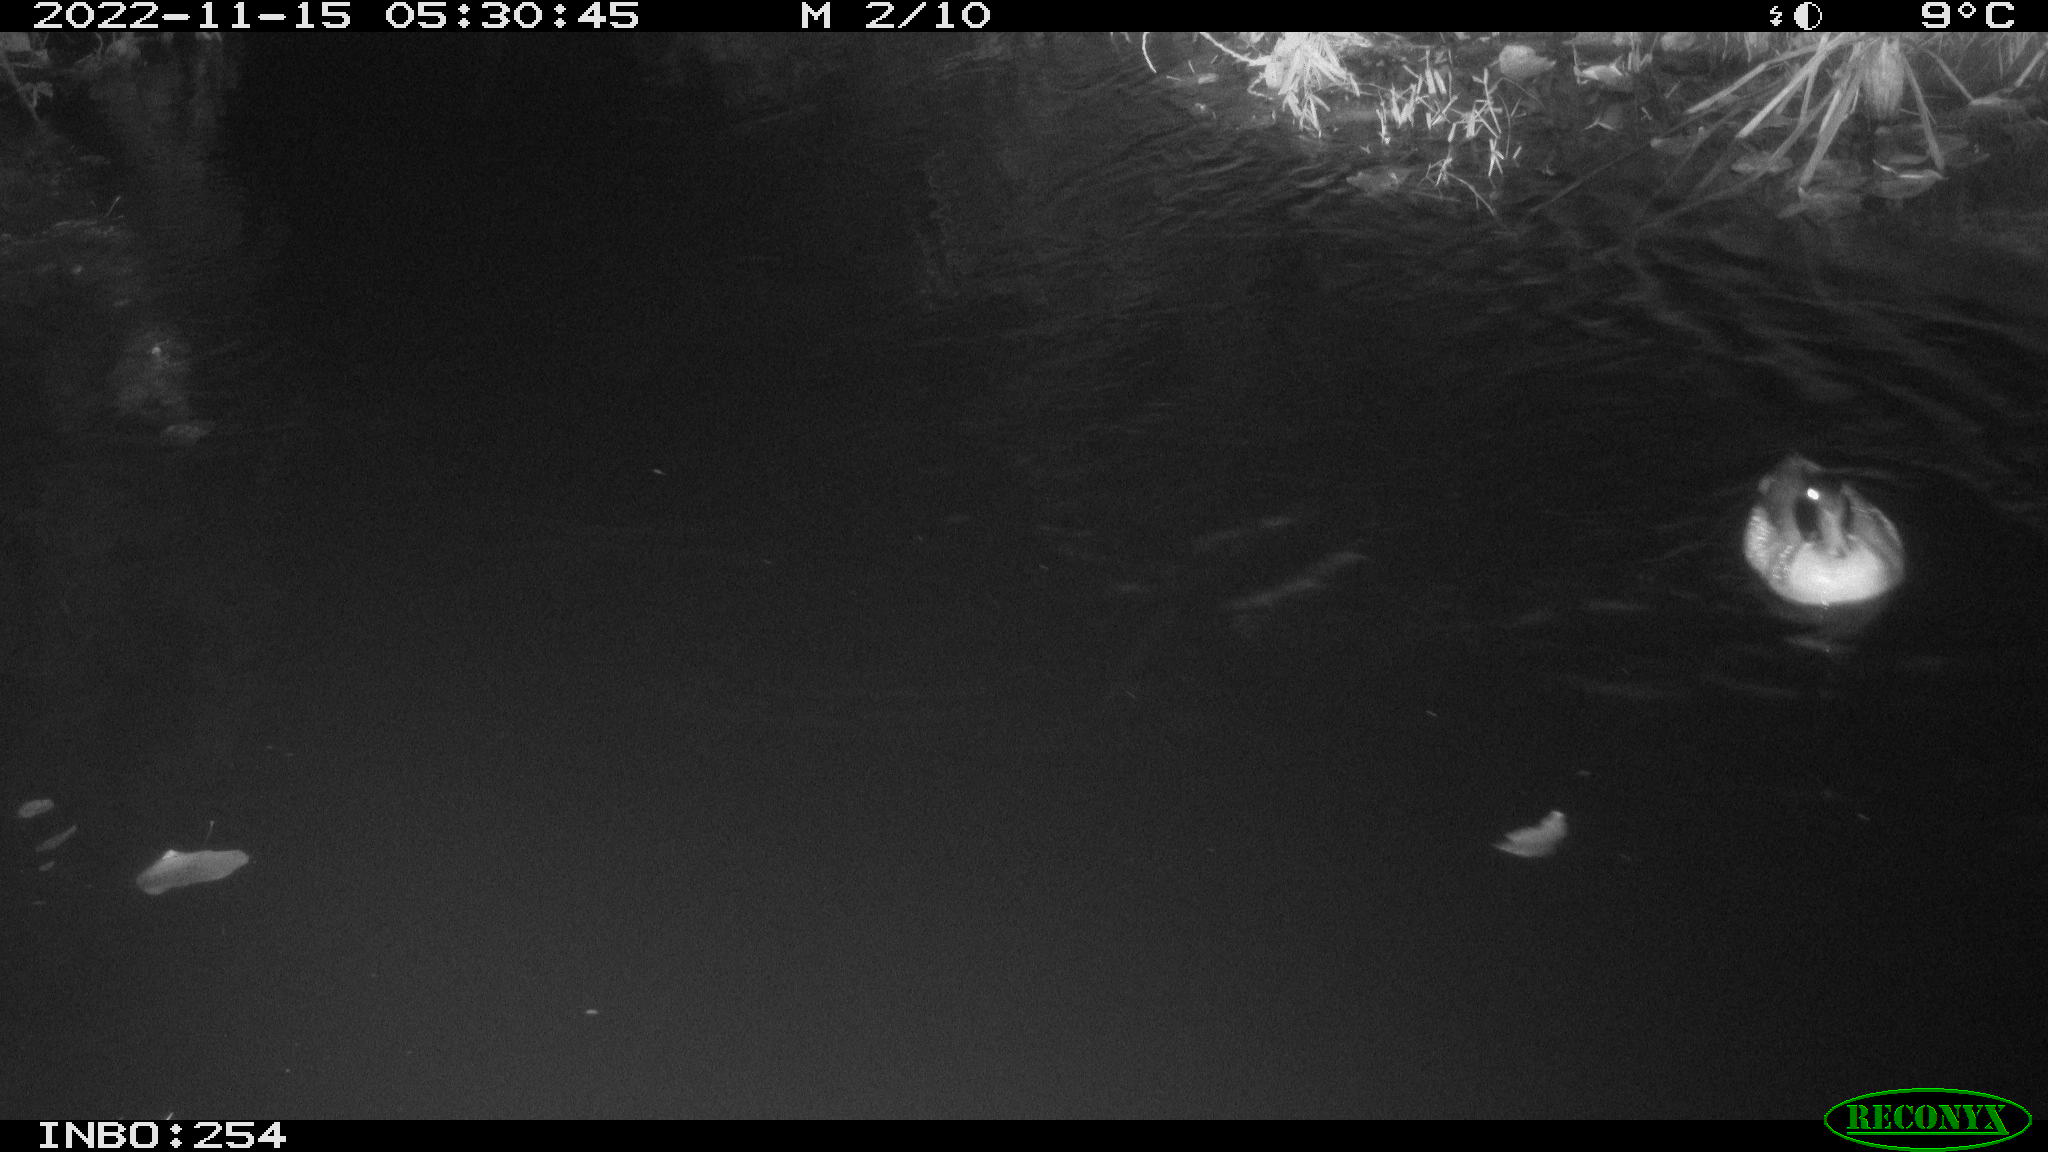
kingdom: Animalia
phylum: Chordata
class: Aves
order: Anseriformes
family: Anatidae
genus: Anas
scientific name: Anas
